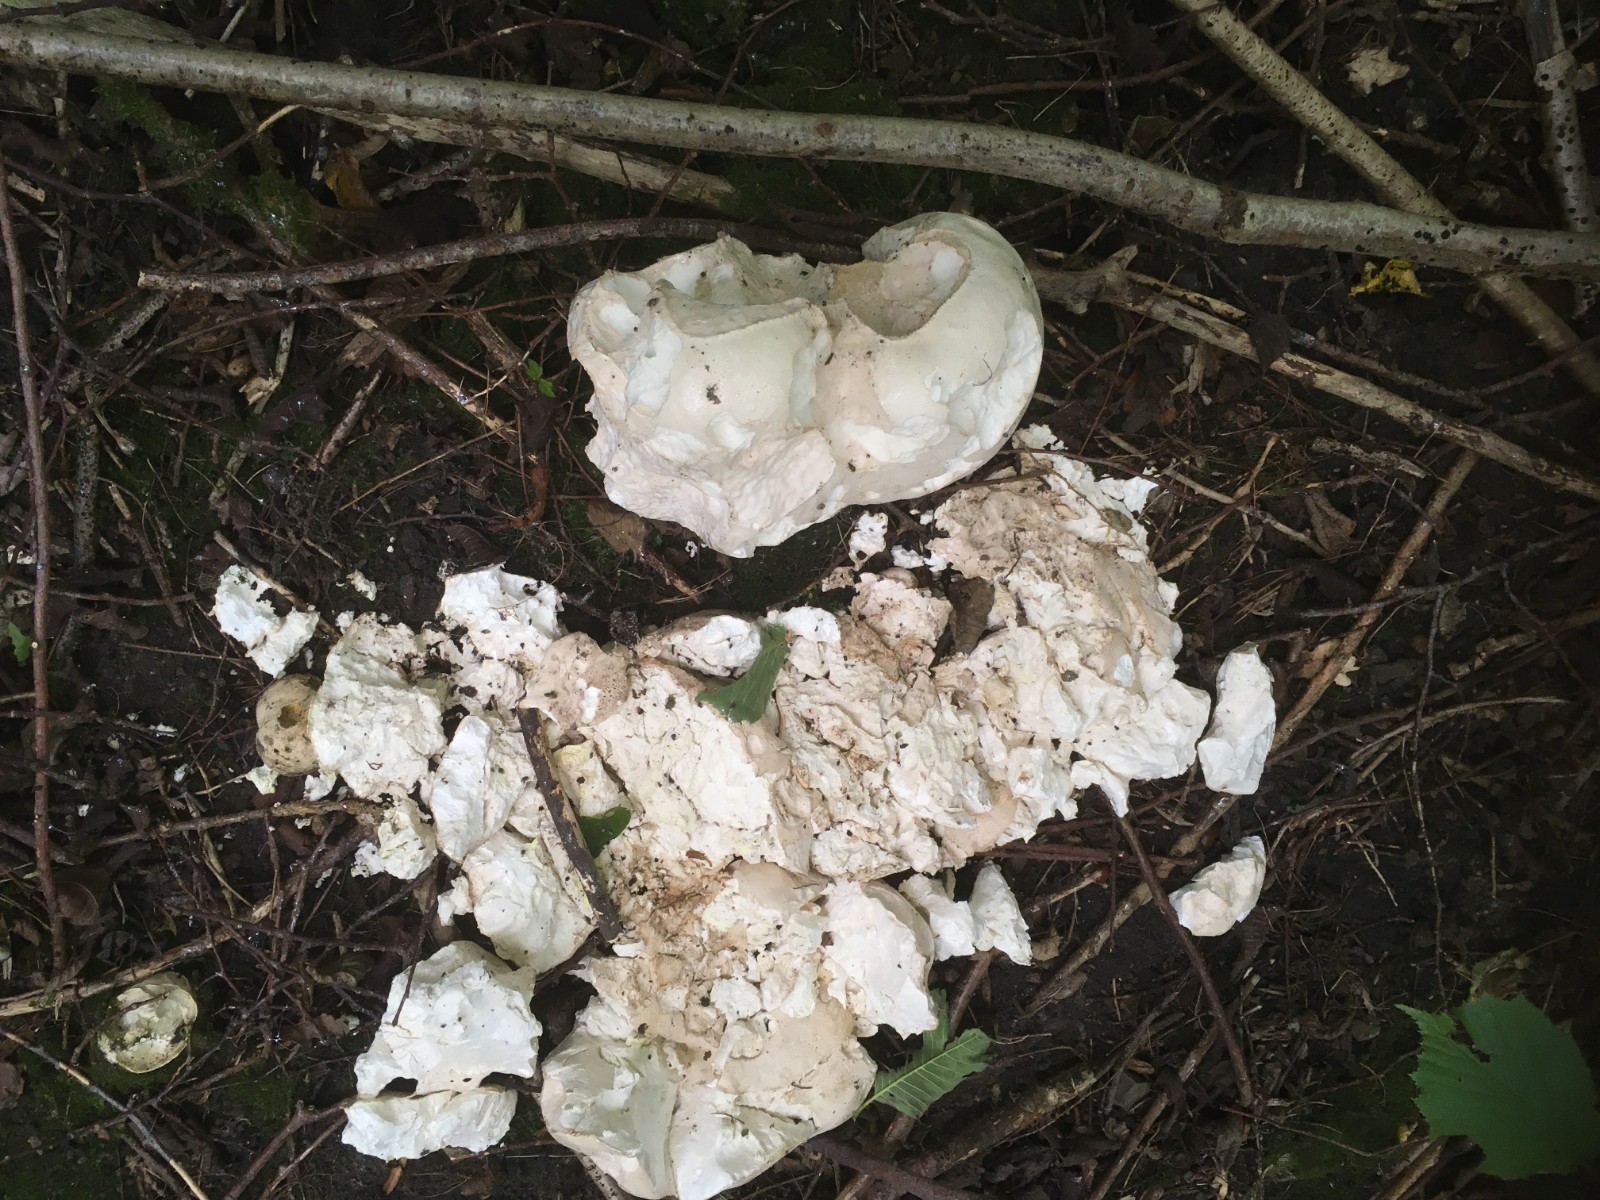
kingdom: Fungi
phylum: Basidiomycota
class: Agaricomycetes
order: Agaricales
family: Lycoperdaceae
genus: Calvatia
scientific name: Calvatia gigantea
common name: kæmpestøvbold
